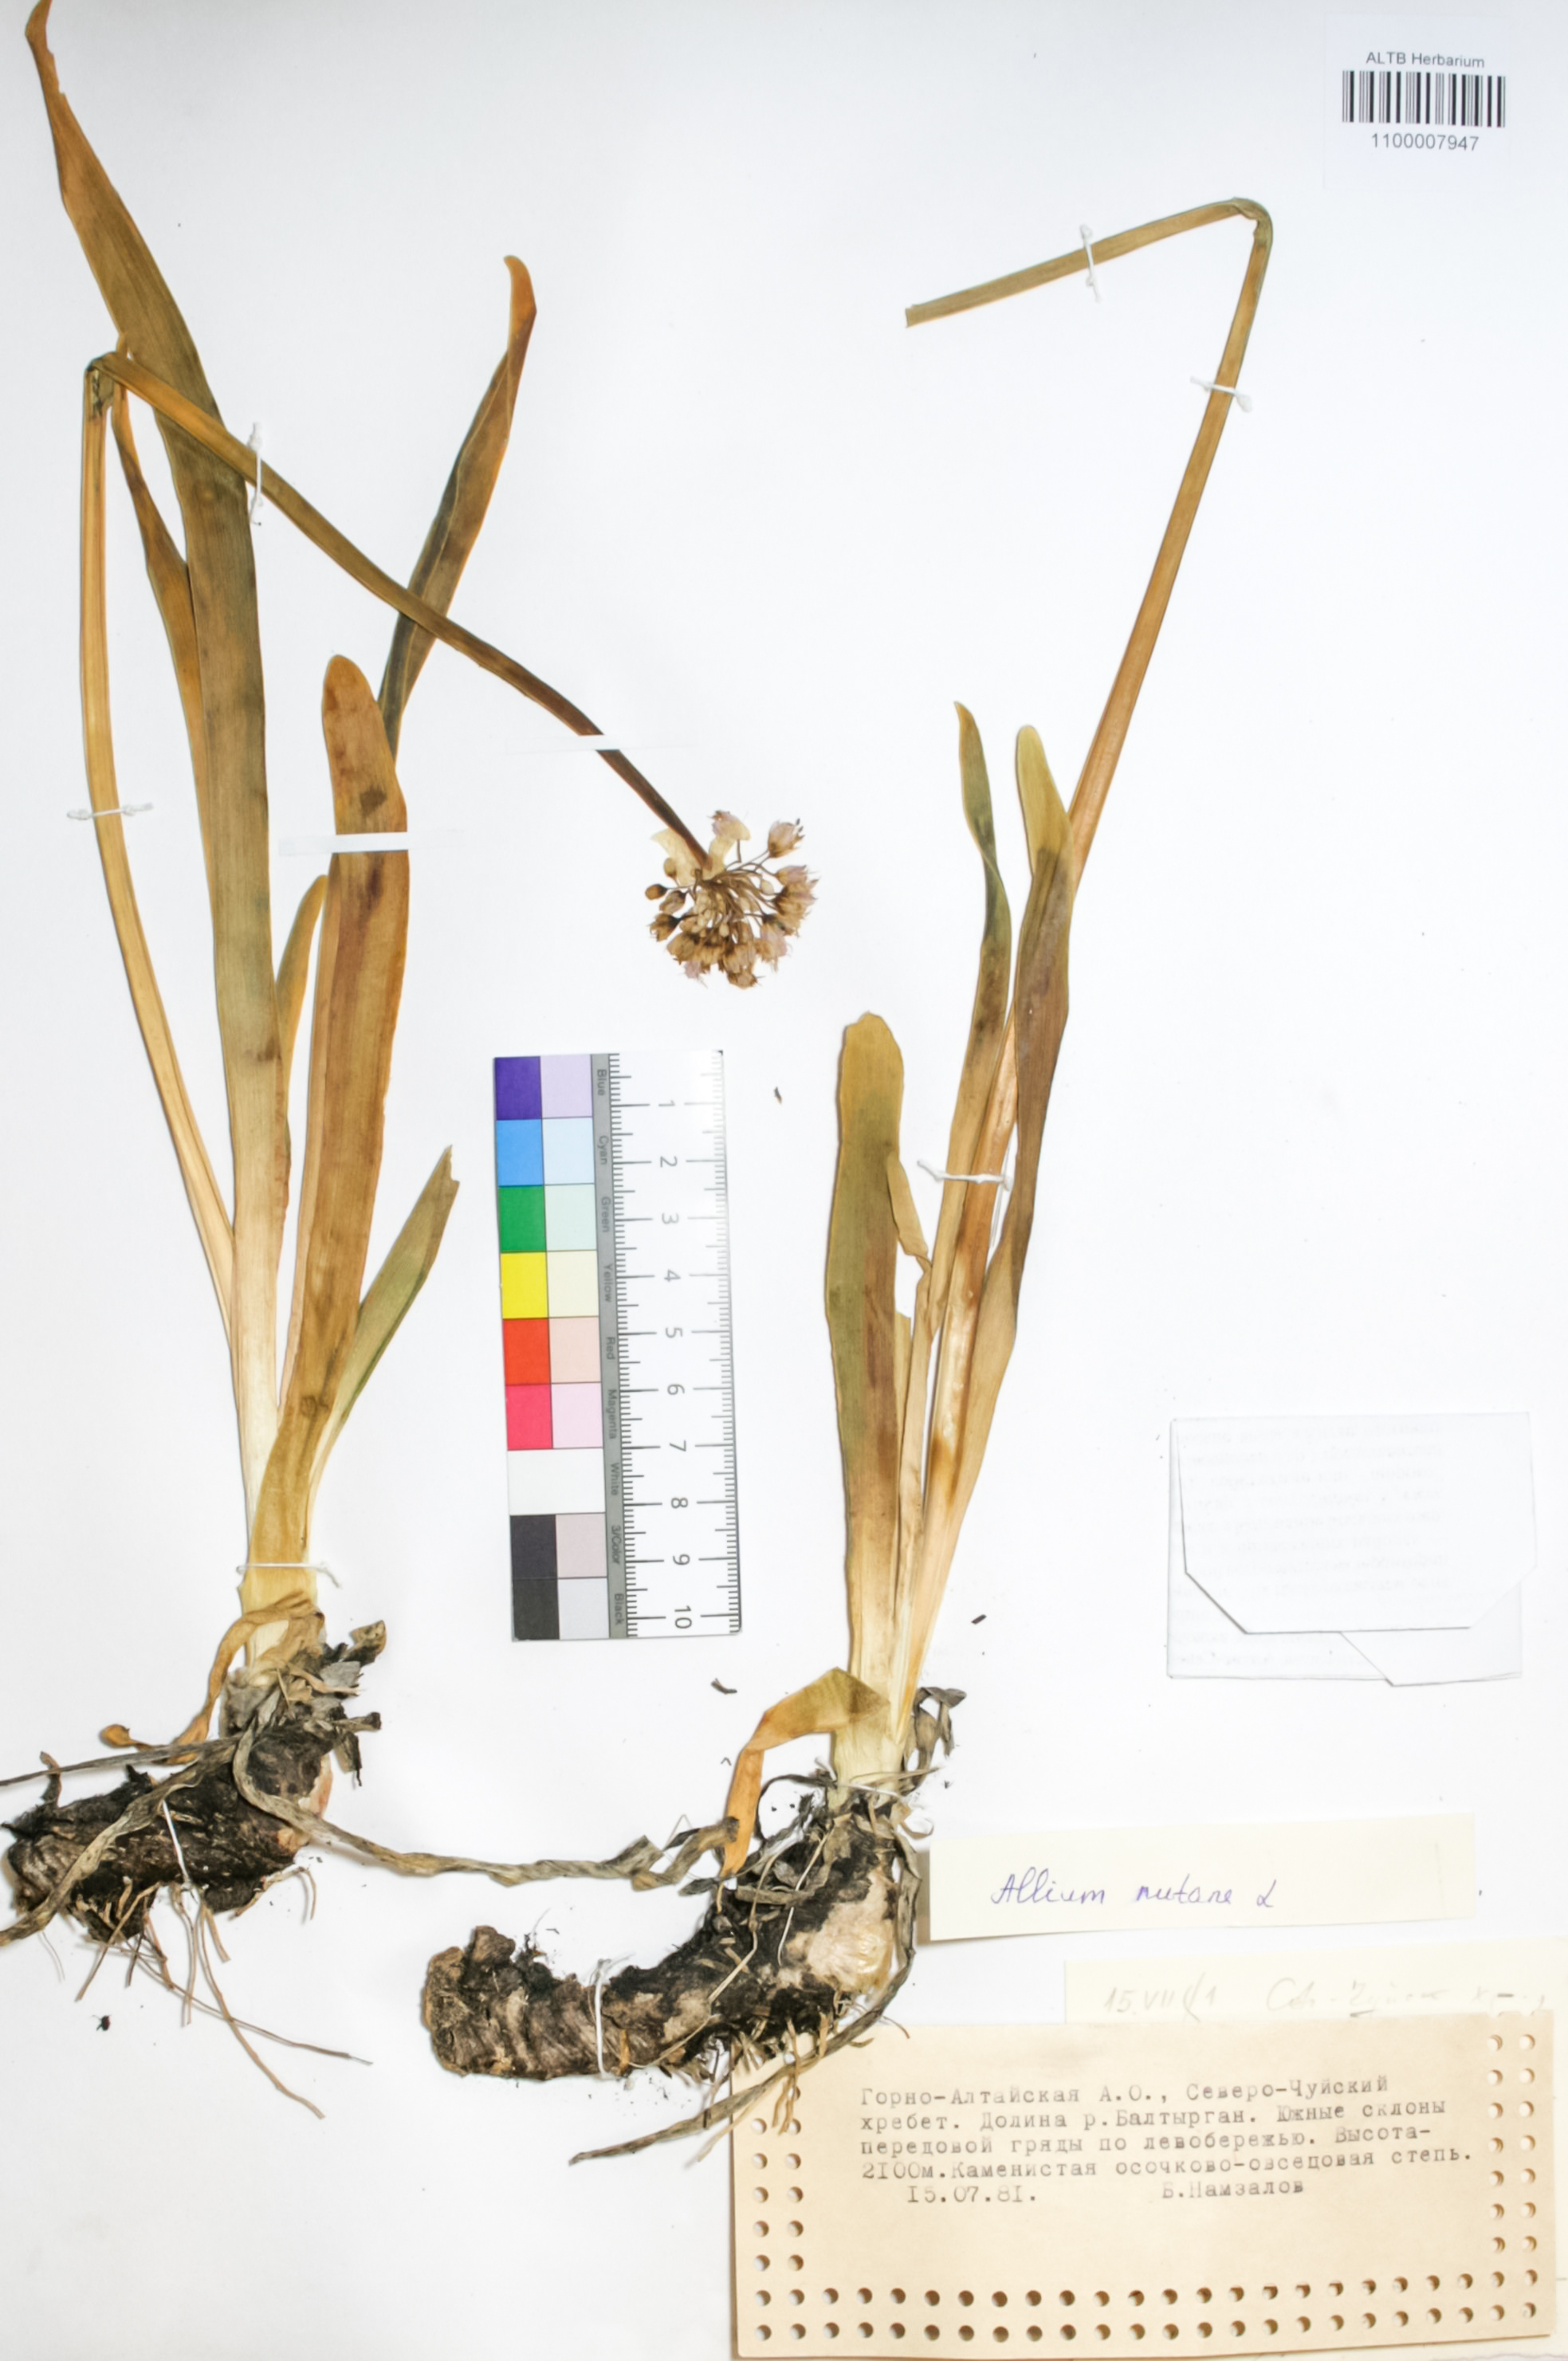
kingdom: Plantae
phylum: Tracheophyta
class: Liliopsida
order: Asparagales
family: Amaryllidaceae
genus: Allium
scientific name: Allium nutans
